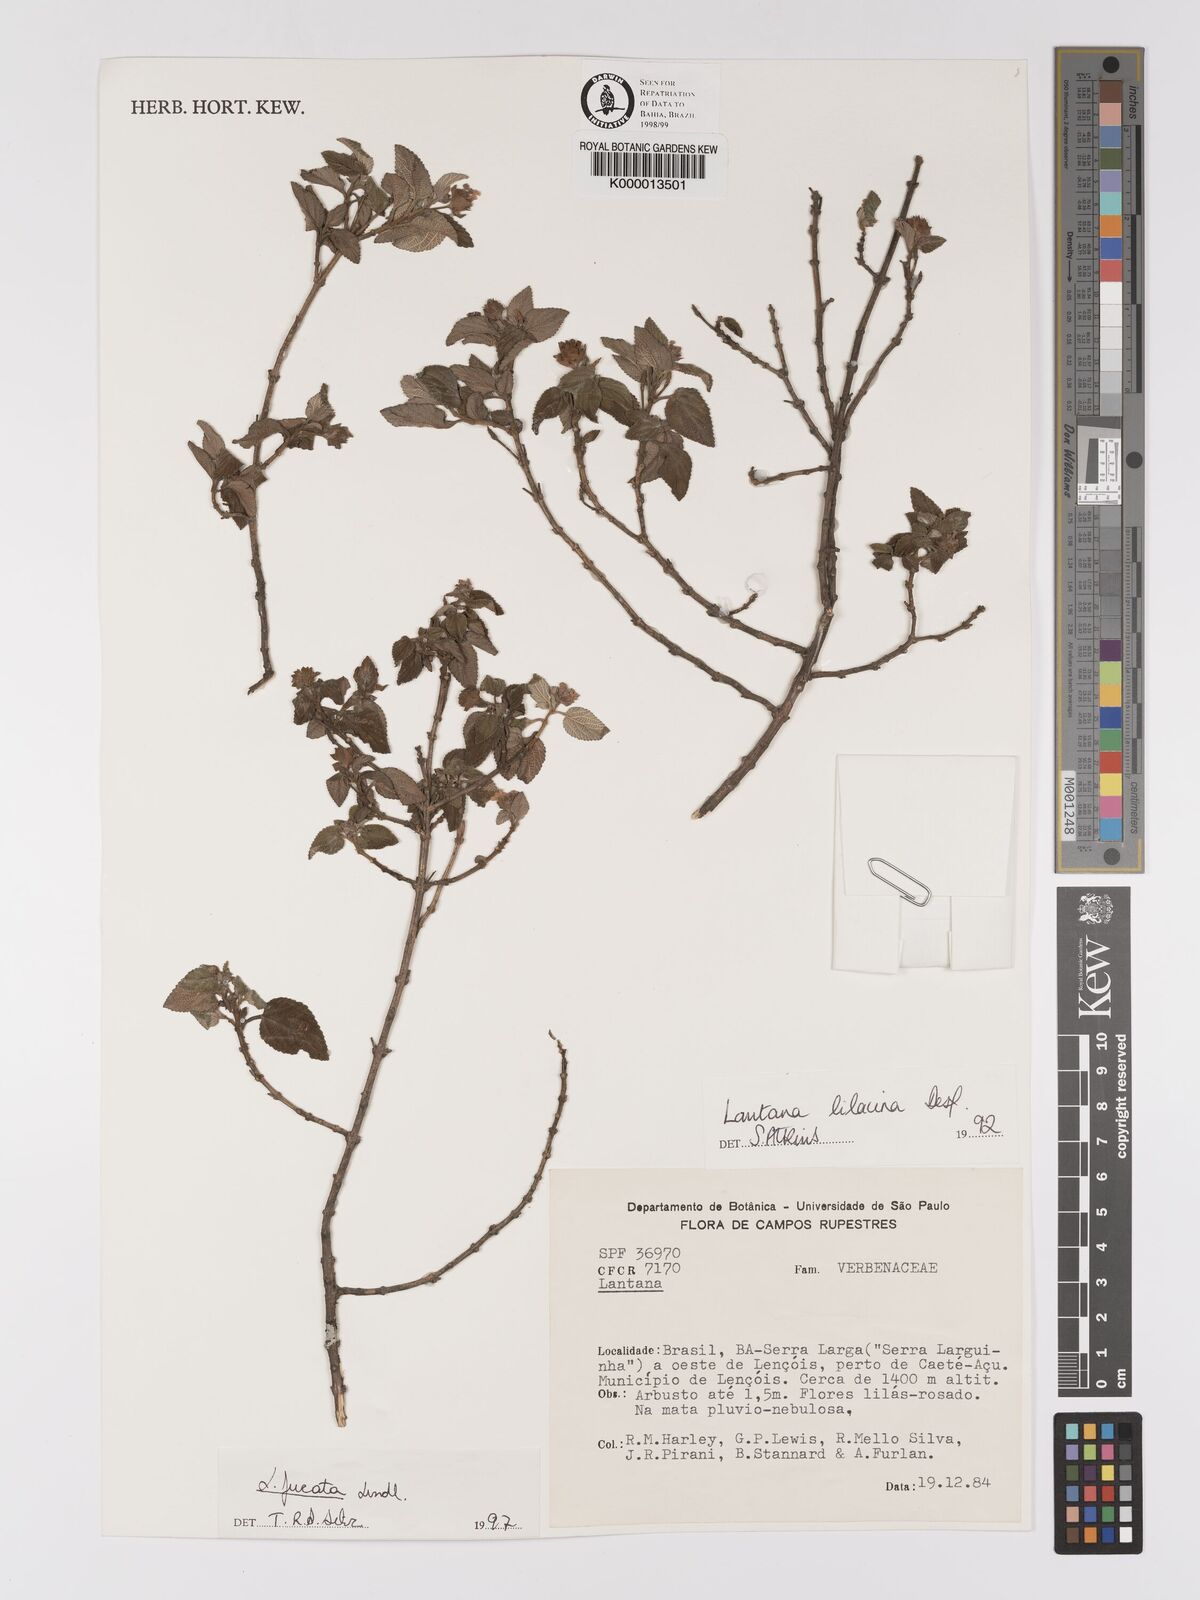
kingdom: Plantae
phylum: Tracheophyta
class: Magnoliopsida
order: Lamiales
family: Verbenaceae
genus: Lantana
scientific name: Lantana fucata
